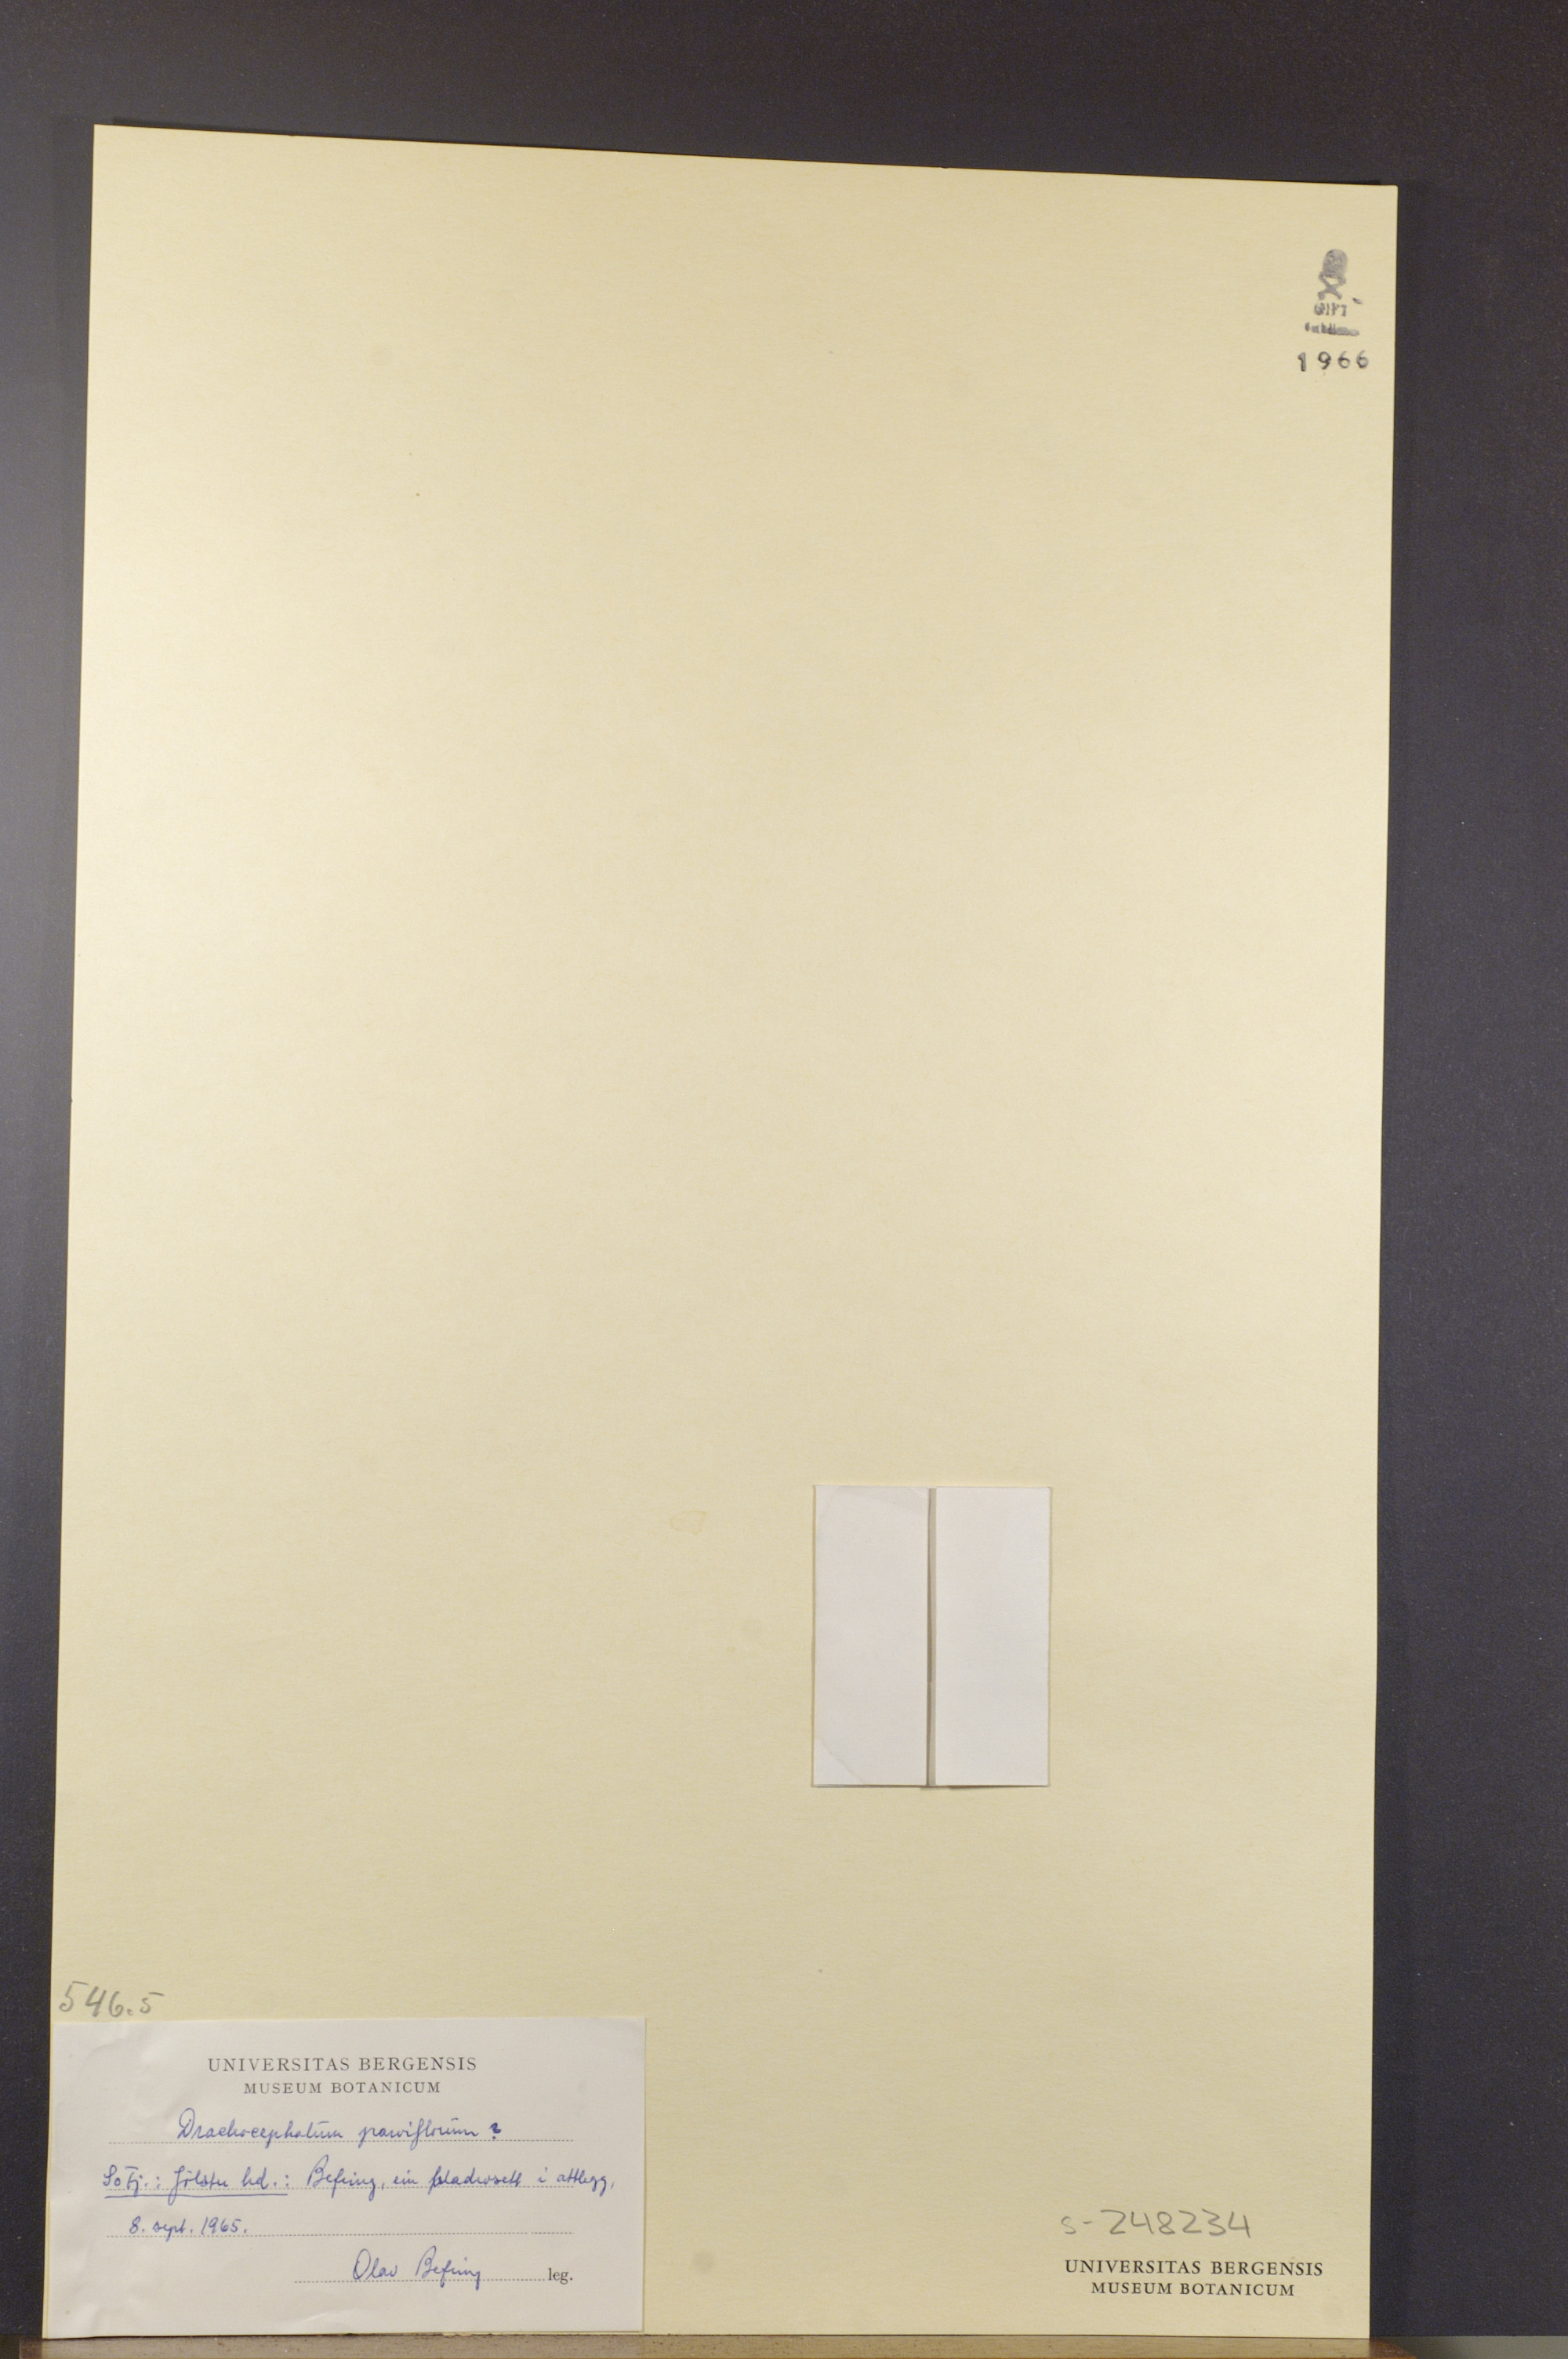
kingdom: Plantae
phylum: Tracheophyta
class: Magnoliopsida
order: Lamiales
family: Lamiaceae
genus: Dracocephalum
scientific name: Dracocephalum parviflorum
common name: American dragonhead
